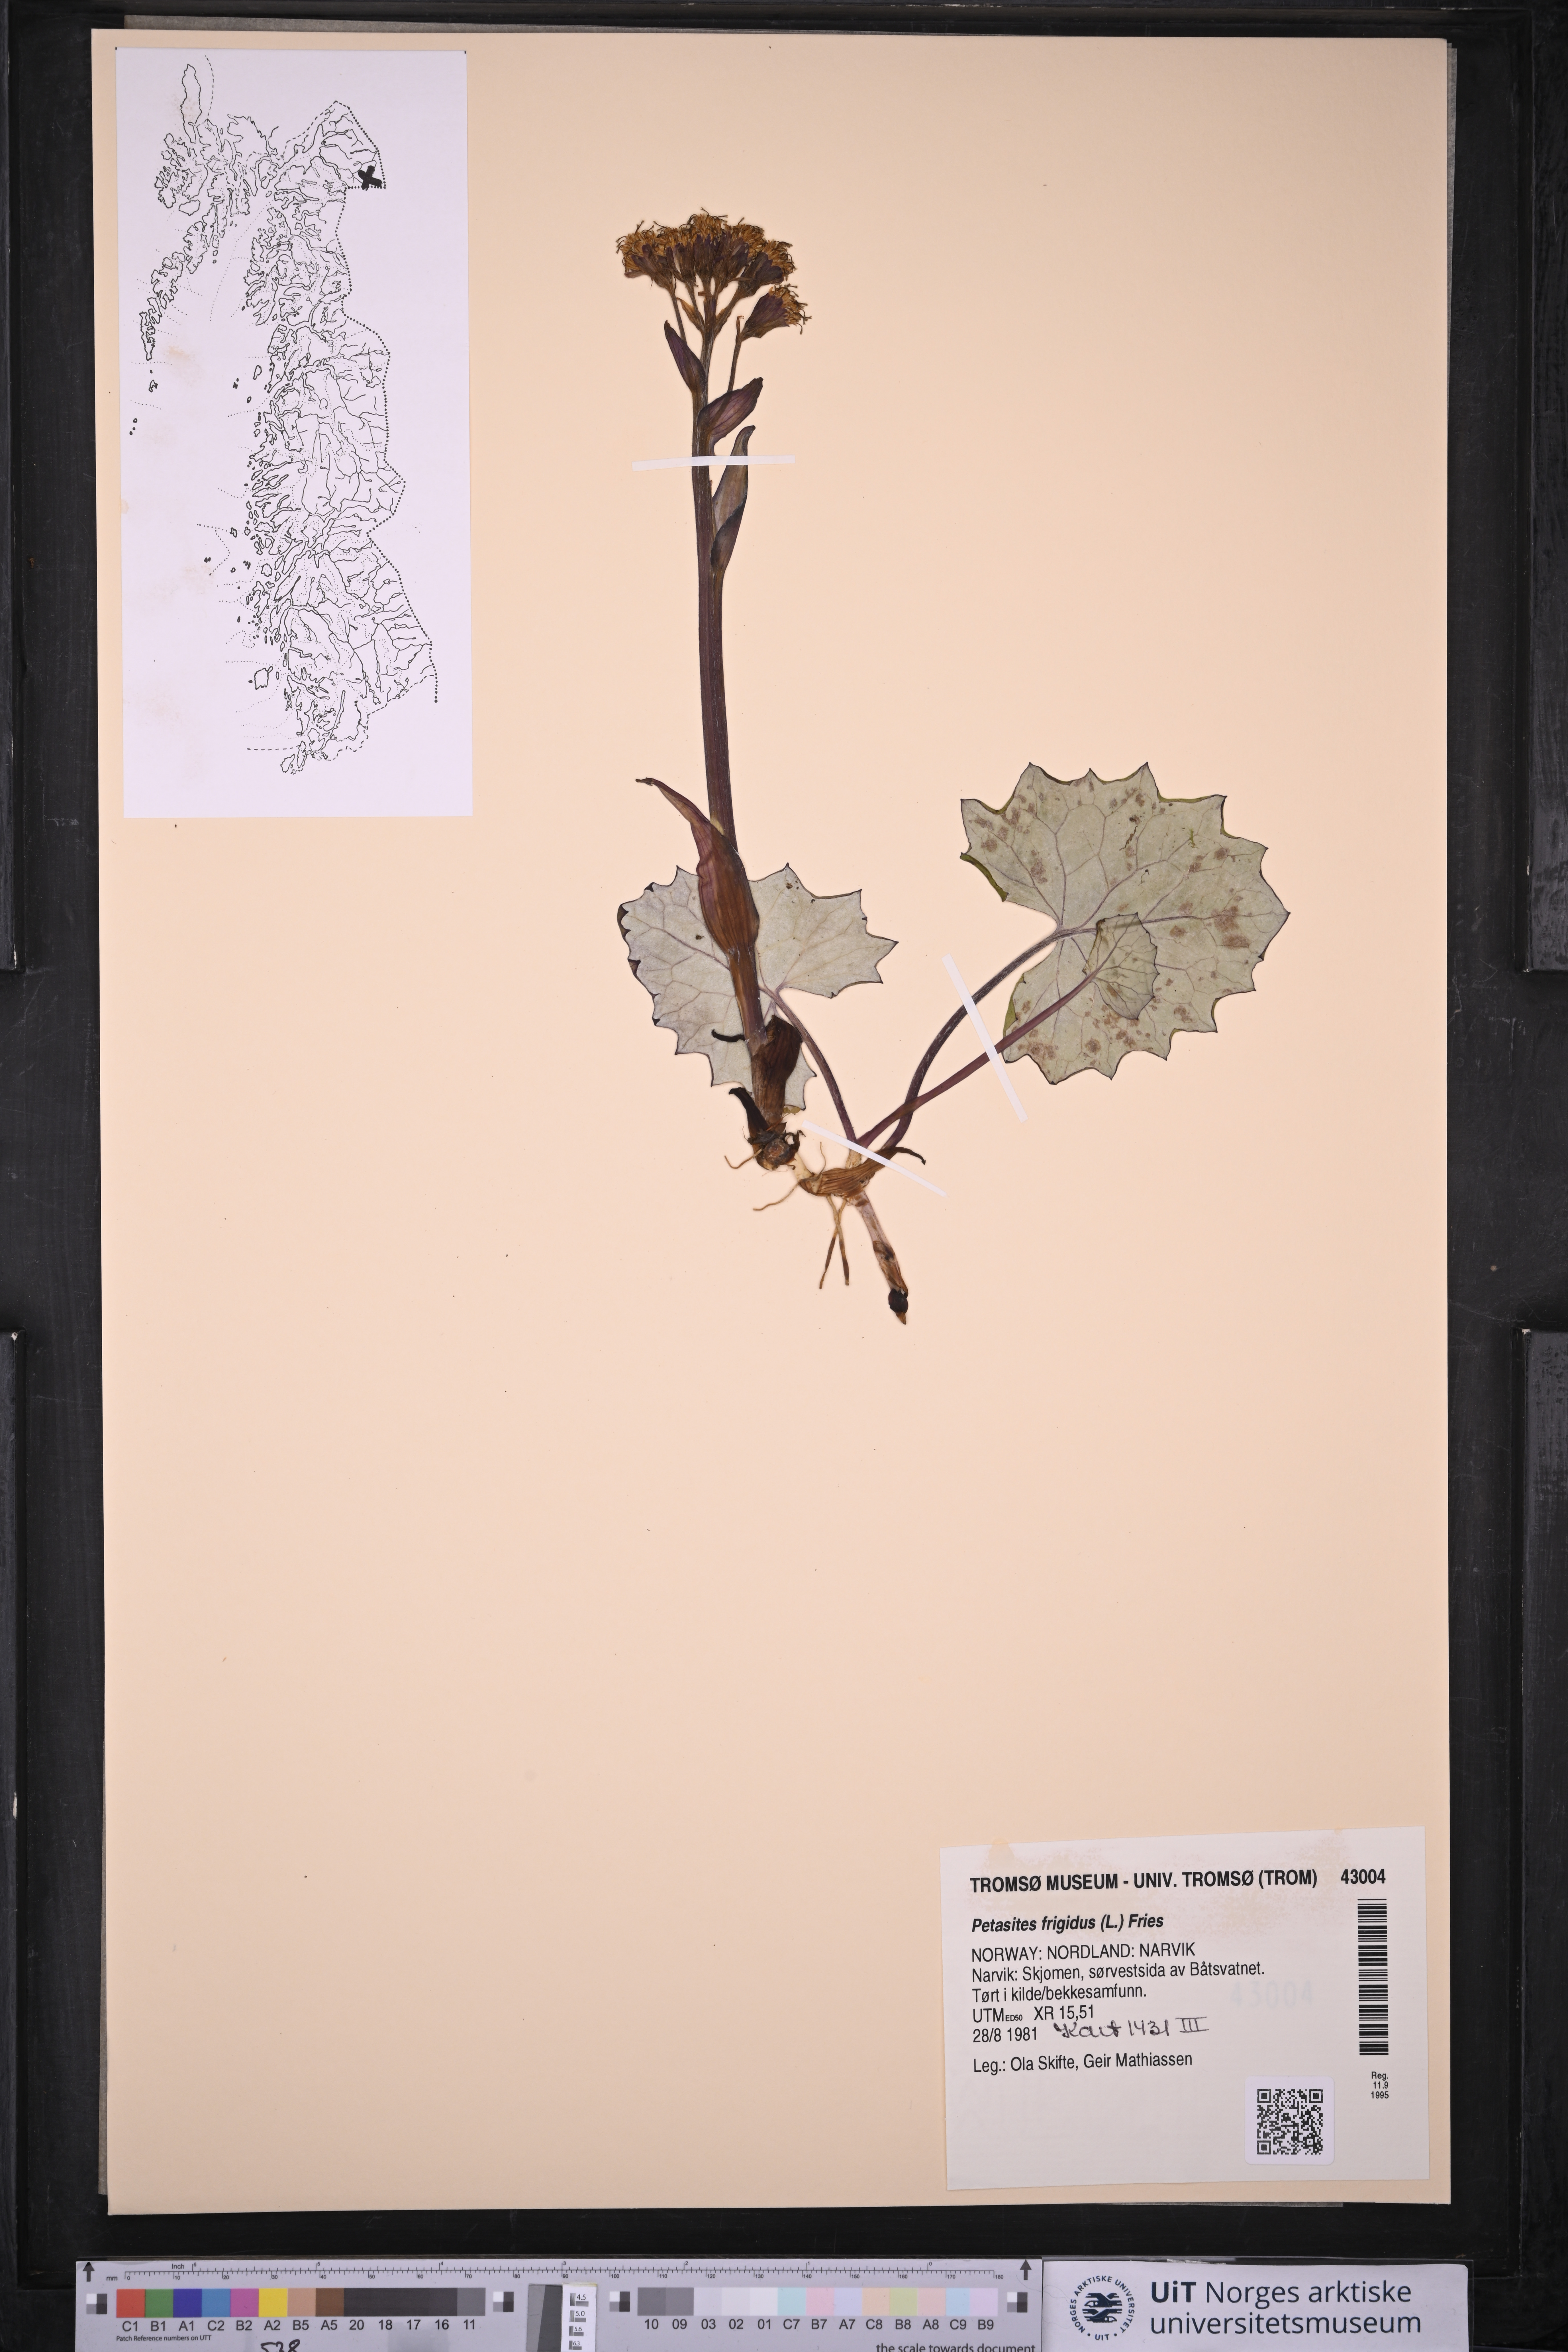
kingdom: Plantae
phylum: Tracheophyta
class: Magnoliopsida
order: Asterales
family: Asteraceae
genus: Petasites
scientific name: Petasites frigidus
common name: Arctic butterbur
